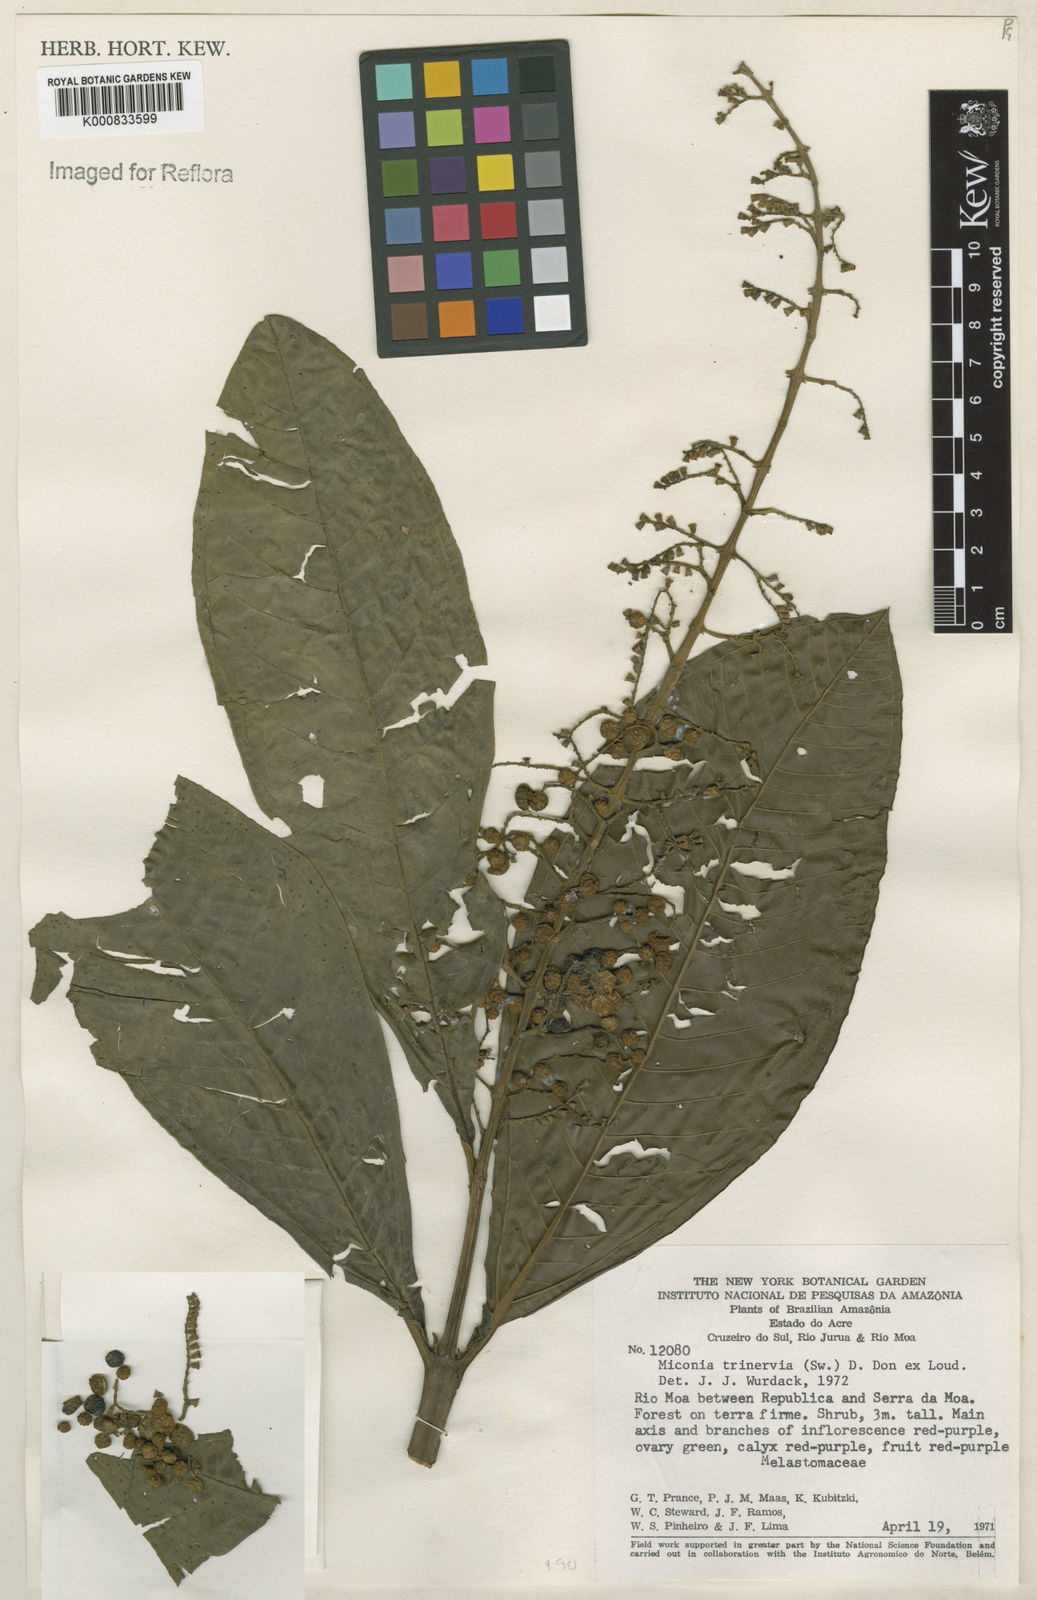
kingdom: Plantae
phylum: Tracheophyta
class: Magnoliopsida
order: Myrtales
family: Melastomataceae
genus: Miconia
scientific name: Miconia trinervia
